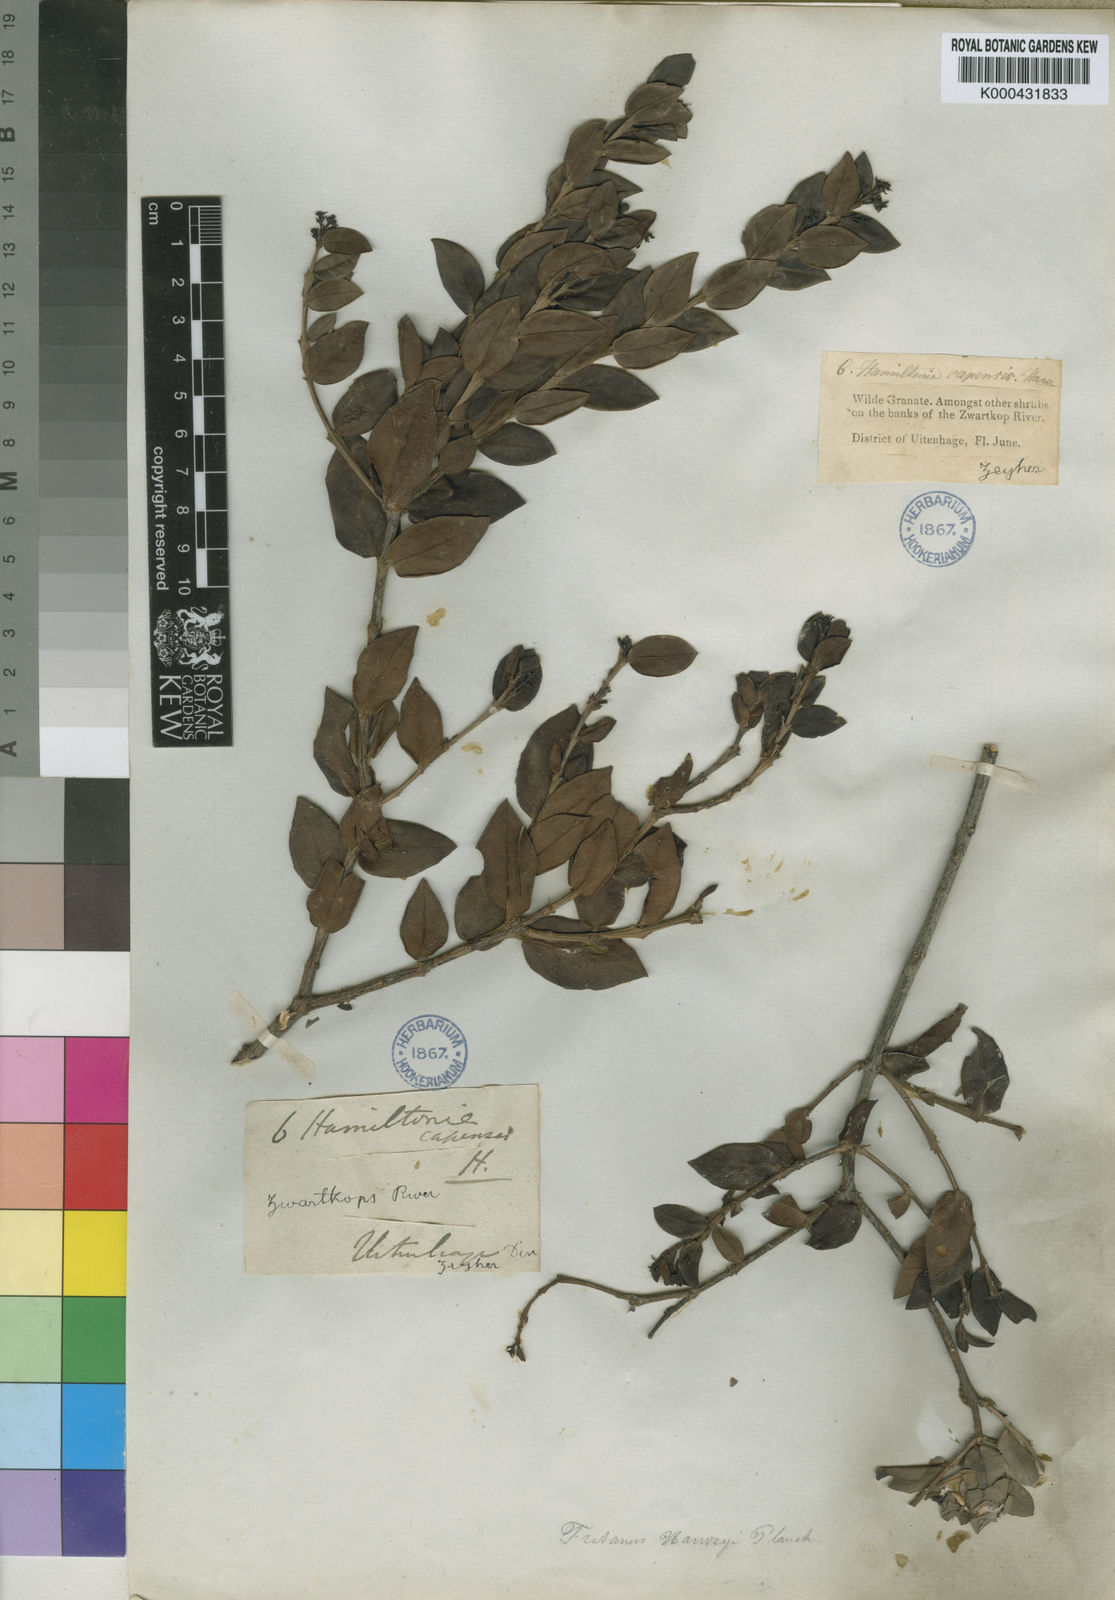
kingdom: Plantae
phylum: Tracheophyta
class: Magnoliopsida
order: Santalales
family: Santalaceae
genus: Rhoiacarpos
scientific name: Rhoiacarpos capensis
